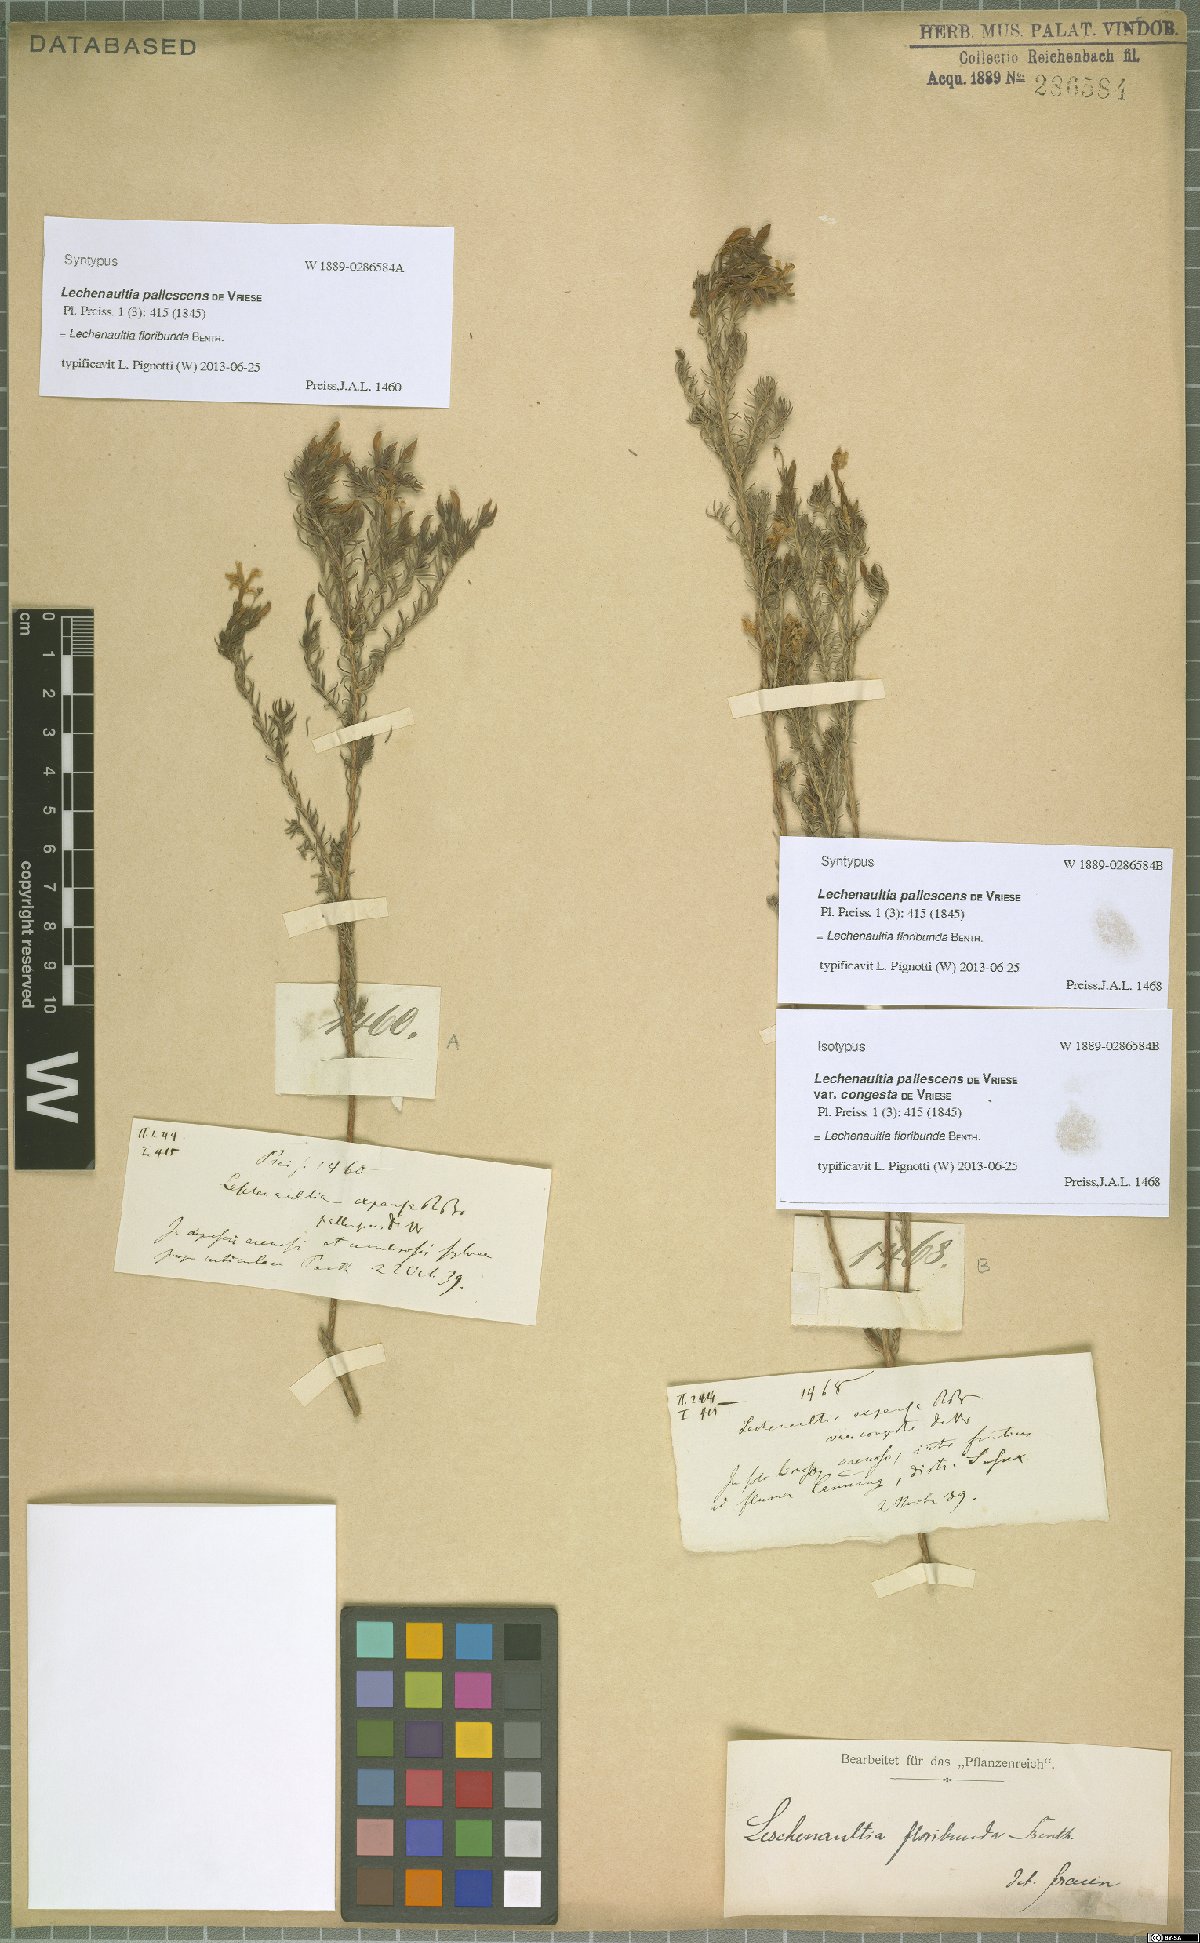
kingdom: Plantae
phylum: Tracheophyta
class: Magnoliopsida
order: Asterales
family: Goodeniaceae
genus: Lechenaultia
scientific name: Lechenaultia floribunda
